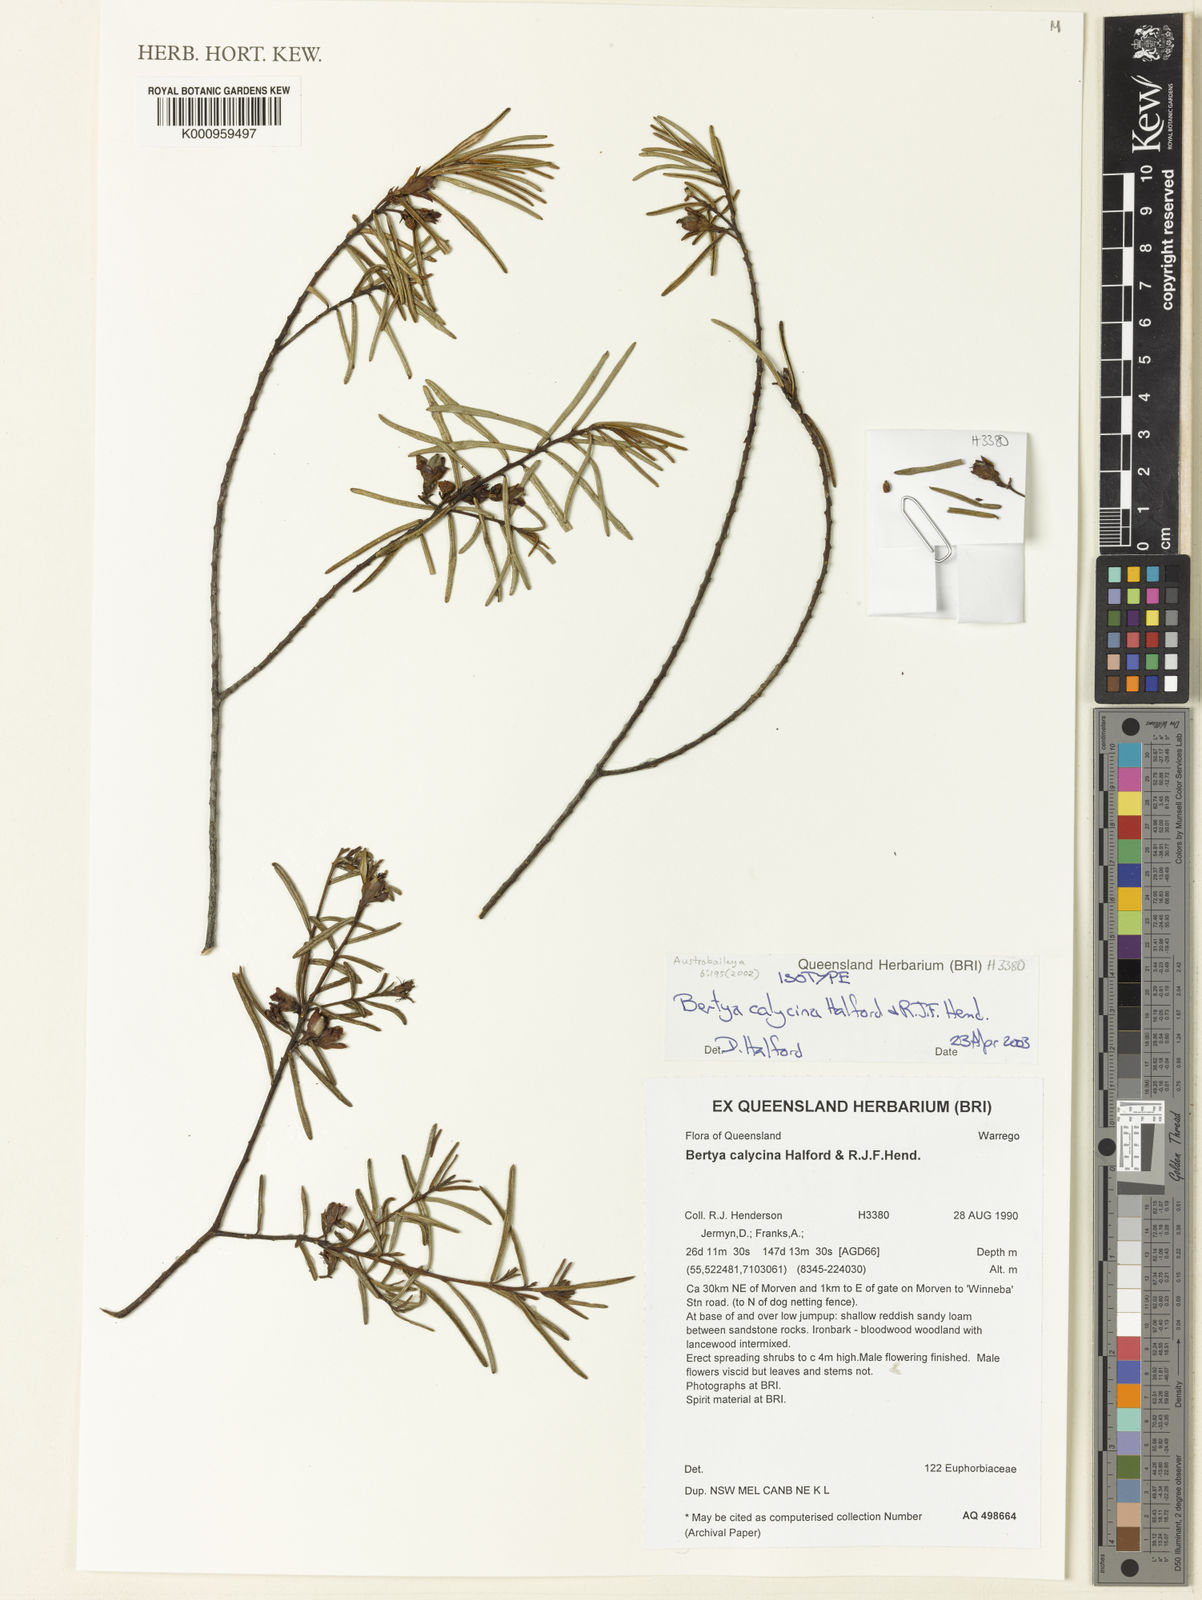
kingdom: Plantae
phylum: Tracheophyta
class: Magnoliopsida
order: Malpighiales
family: Euphorbiaceae
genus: Bertya
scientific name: Bertya calycina
